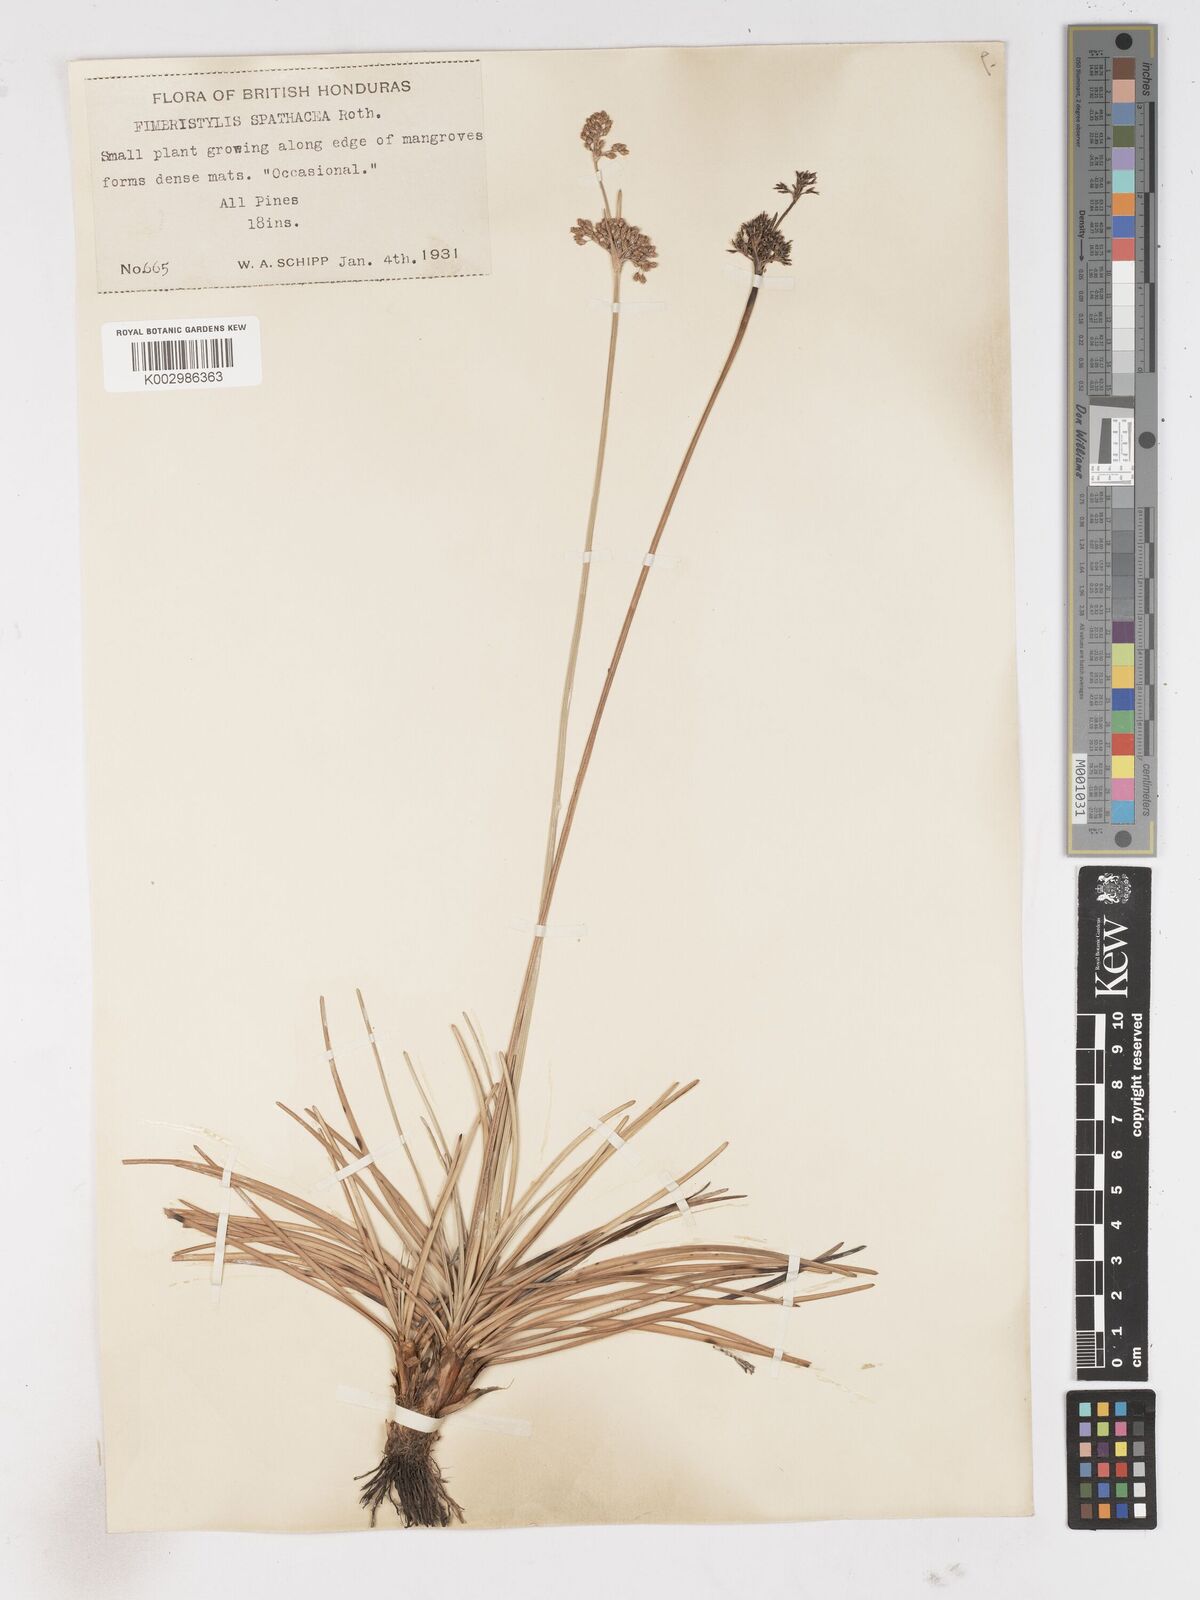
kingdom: Plantae
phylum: Tracheophyta
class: Liliopsida
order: Poales
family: Cyperaceae
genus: Fimbristylis
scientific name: Fimbristylis cymosa
